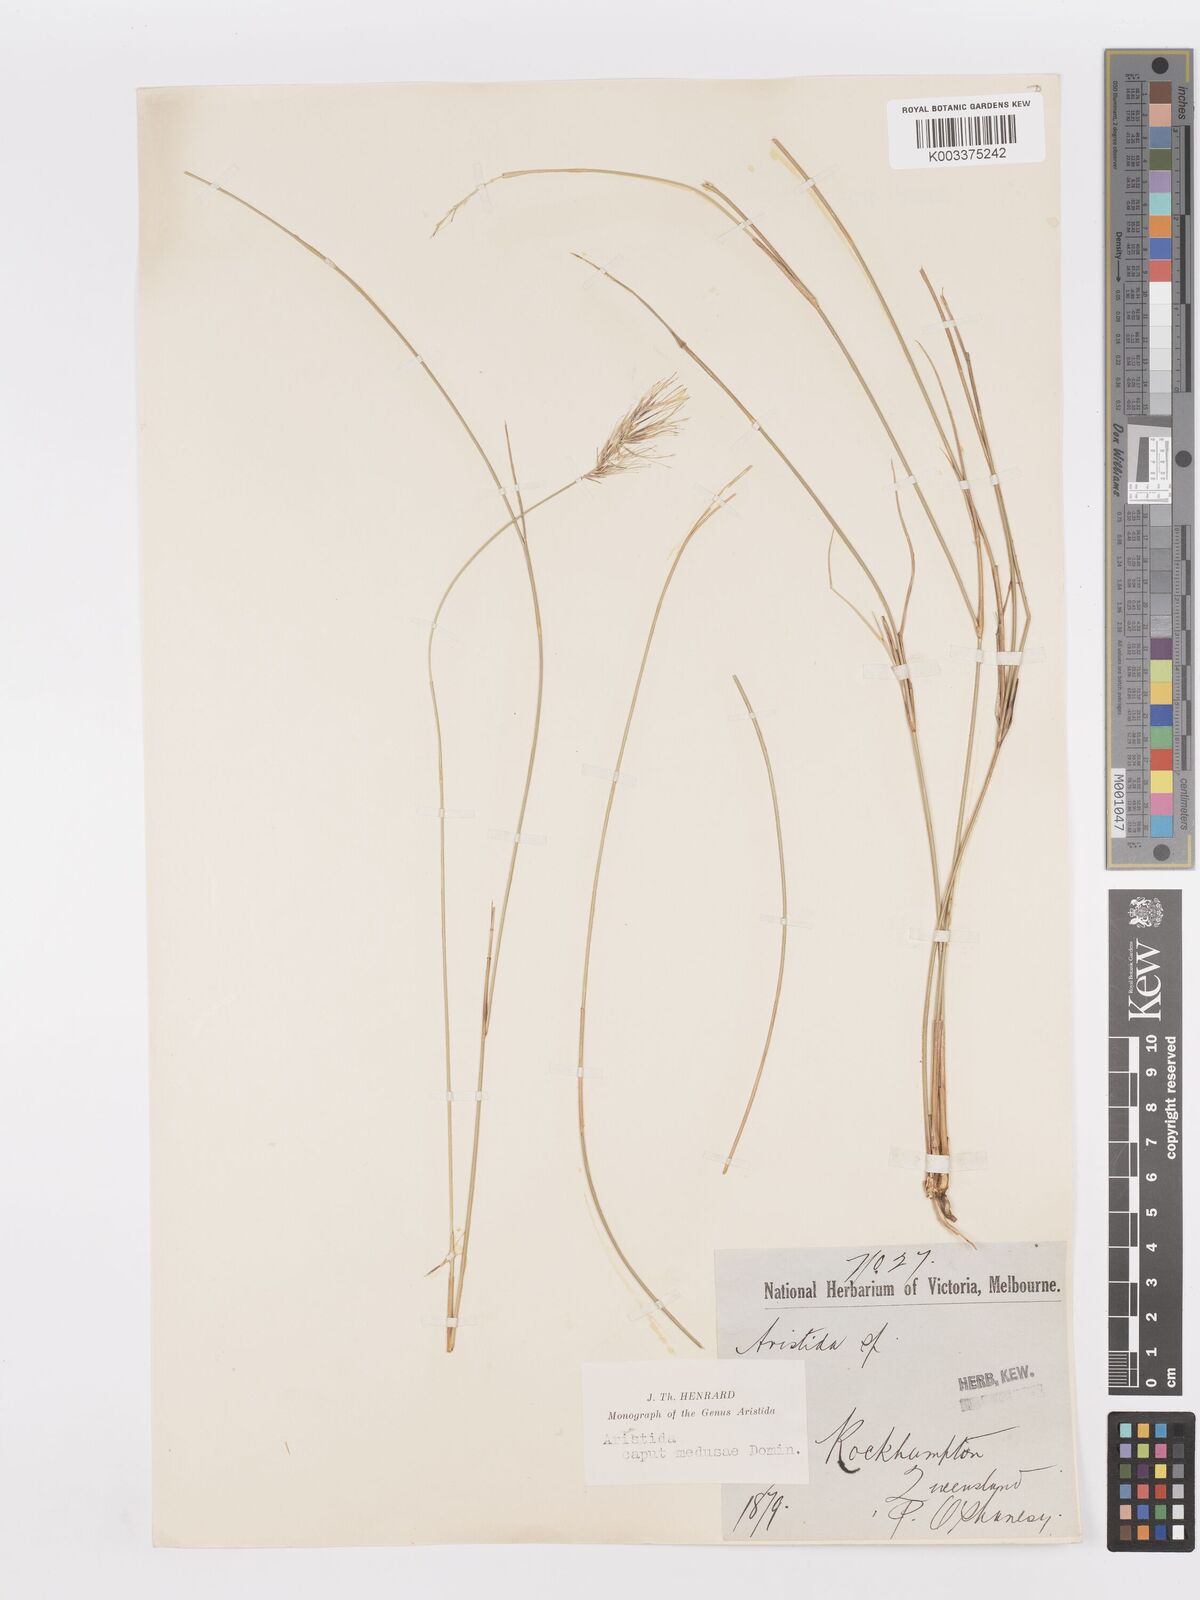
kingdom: Plantae
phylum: Tracheophyta
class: Liliopsida
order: Poales
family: Poaceae
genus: Aristida
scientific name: Aristida caput-medusae
